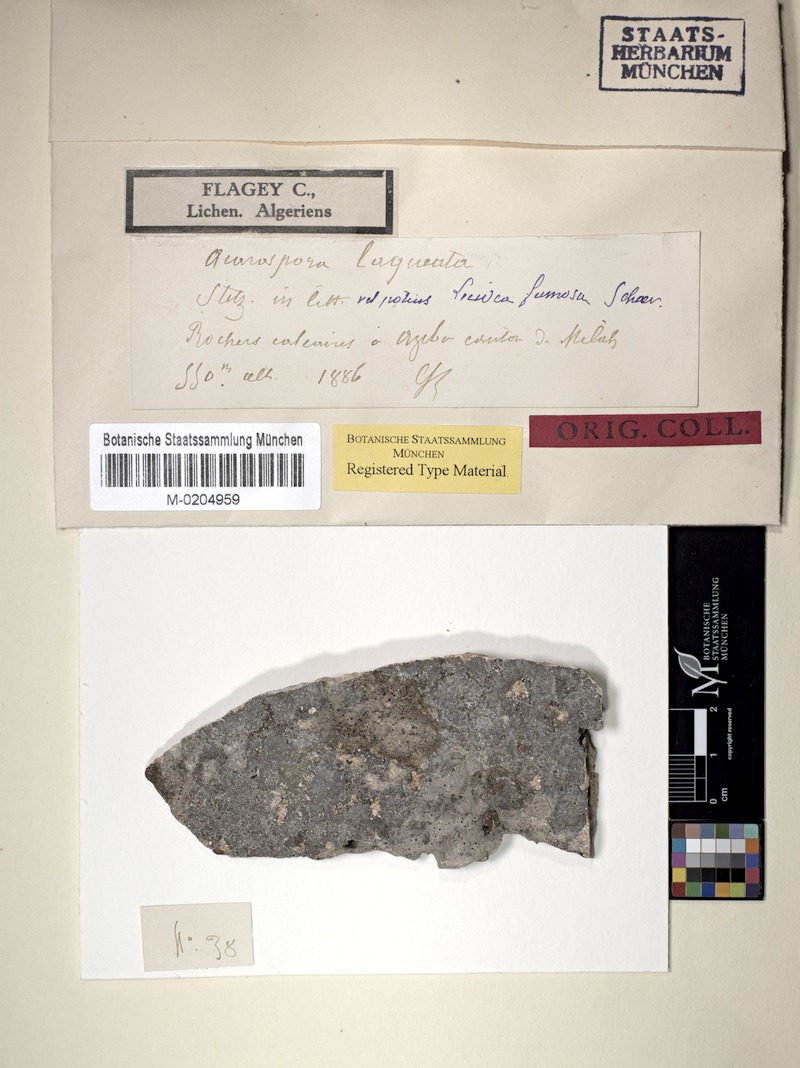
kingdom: Fungi
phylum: Ascomycota
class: Lecanoromycetes
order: Acarosporales
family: Acarosporaceae
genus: Acarospora
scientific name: Acarospora laqueata
